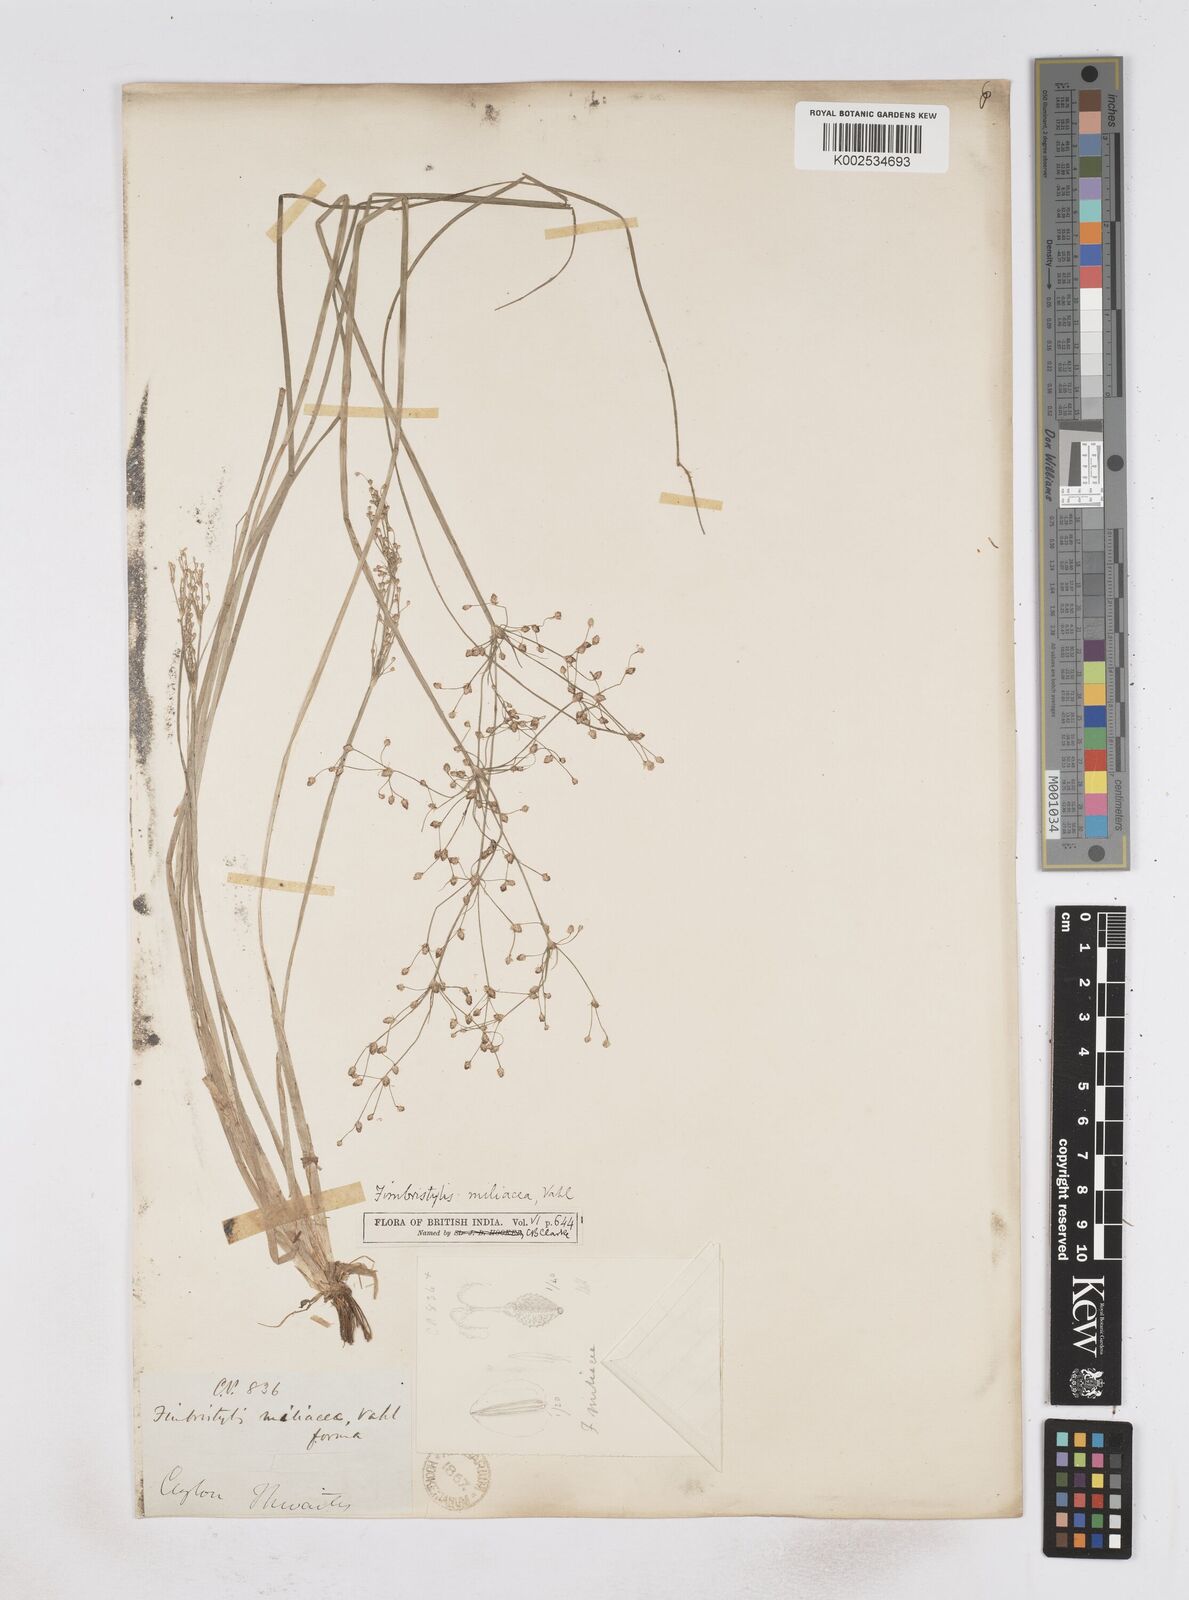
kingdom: Plantae
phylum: Tracheophyta
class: Liliopsida
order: Poales
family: Cyperaceae
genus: Fimbristylis
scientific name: Fimbristylis littoralis
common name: Fimbry
